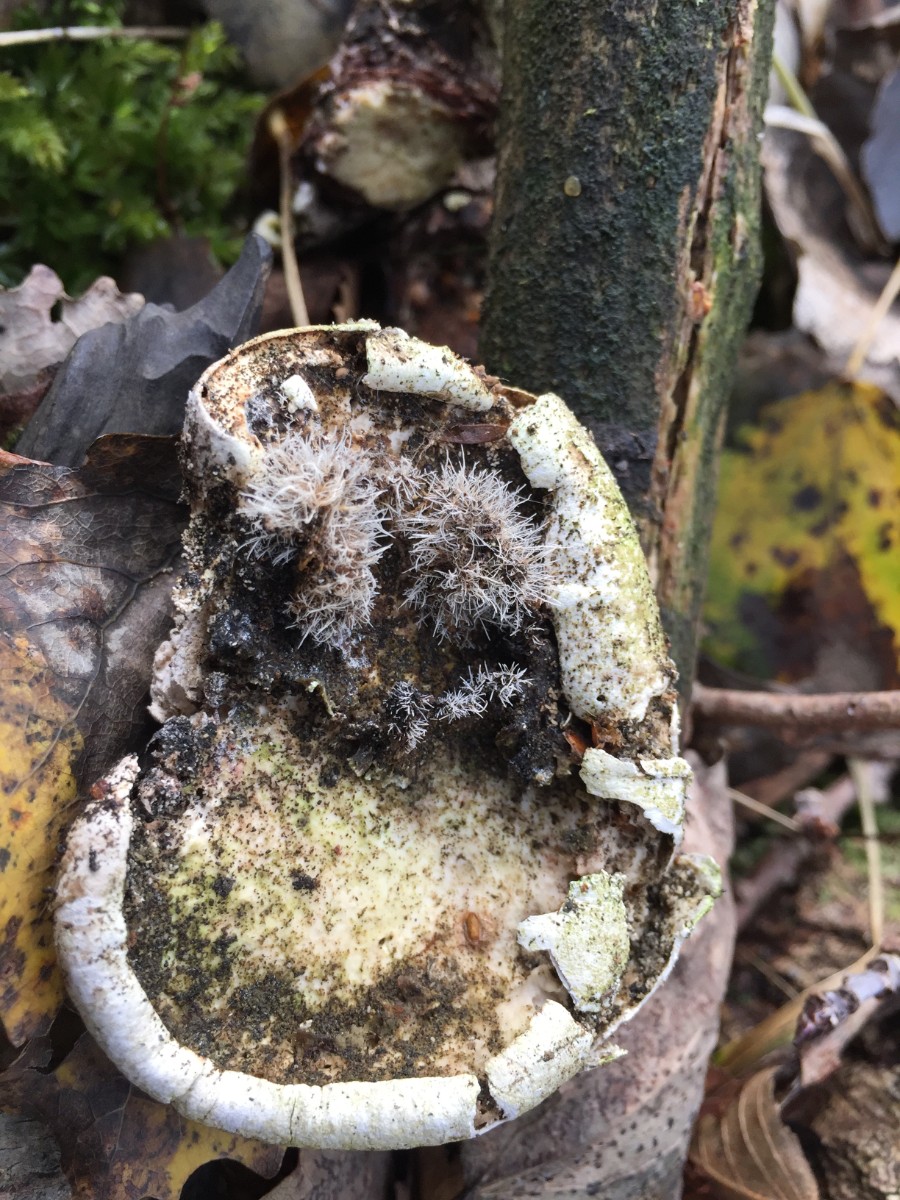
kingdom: Fungi
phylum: Ascomycota
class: Sordariomycetes
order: Hypocreales
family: Tilachlidiaceae
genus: Tilachlidium
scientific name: Tilachlidium brachiatum
